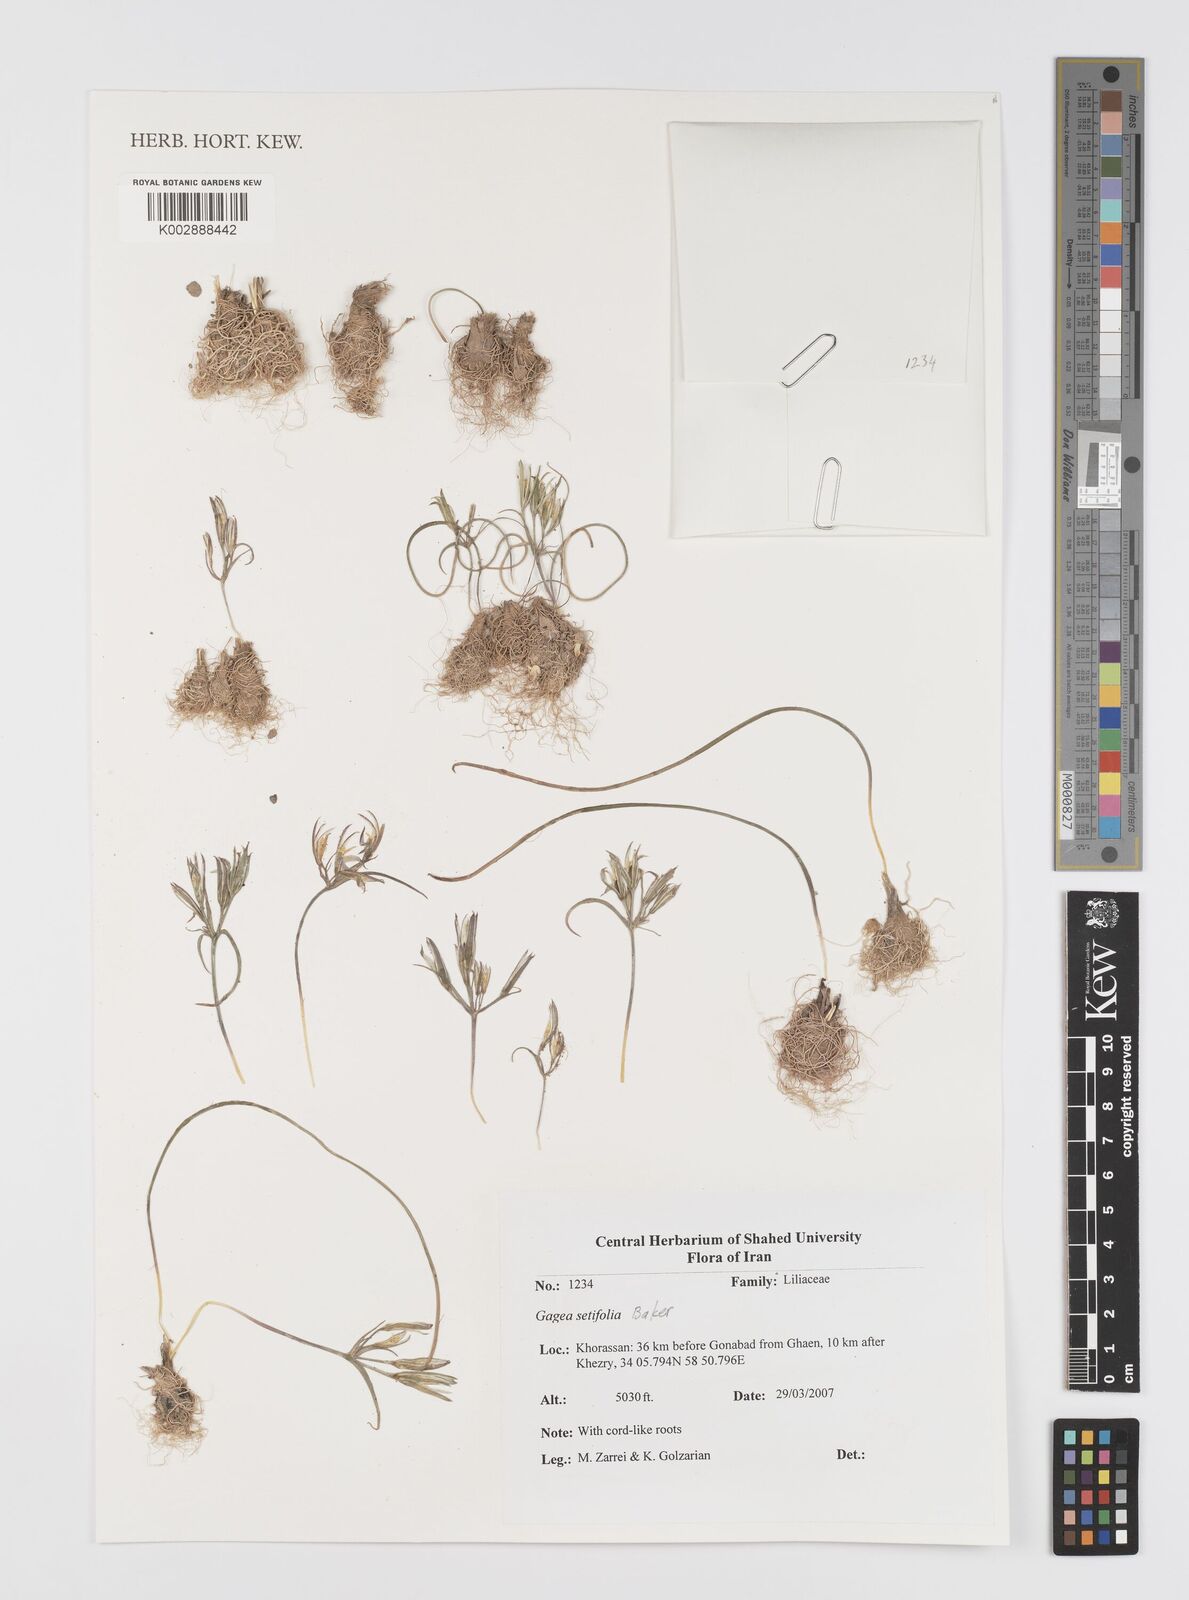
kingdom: Plantae
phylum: Tracheophyta
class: Liliopsida
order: Liliales
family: Liliaceae
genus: Gagea
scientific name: Gagea setifolia
